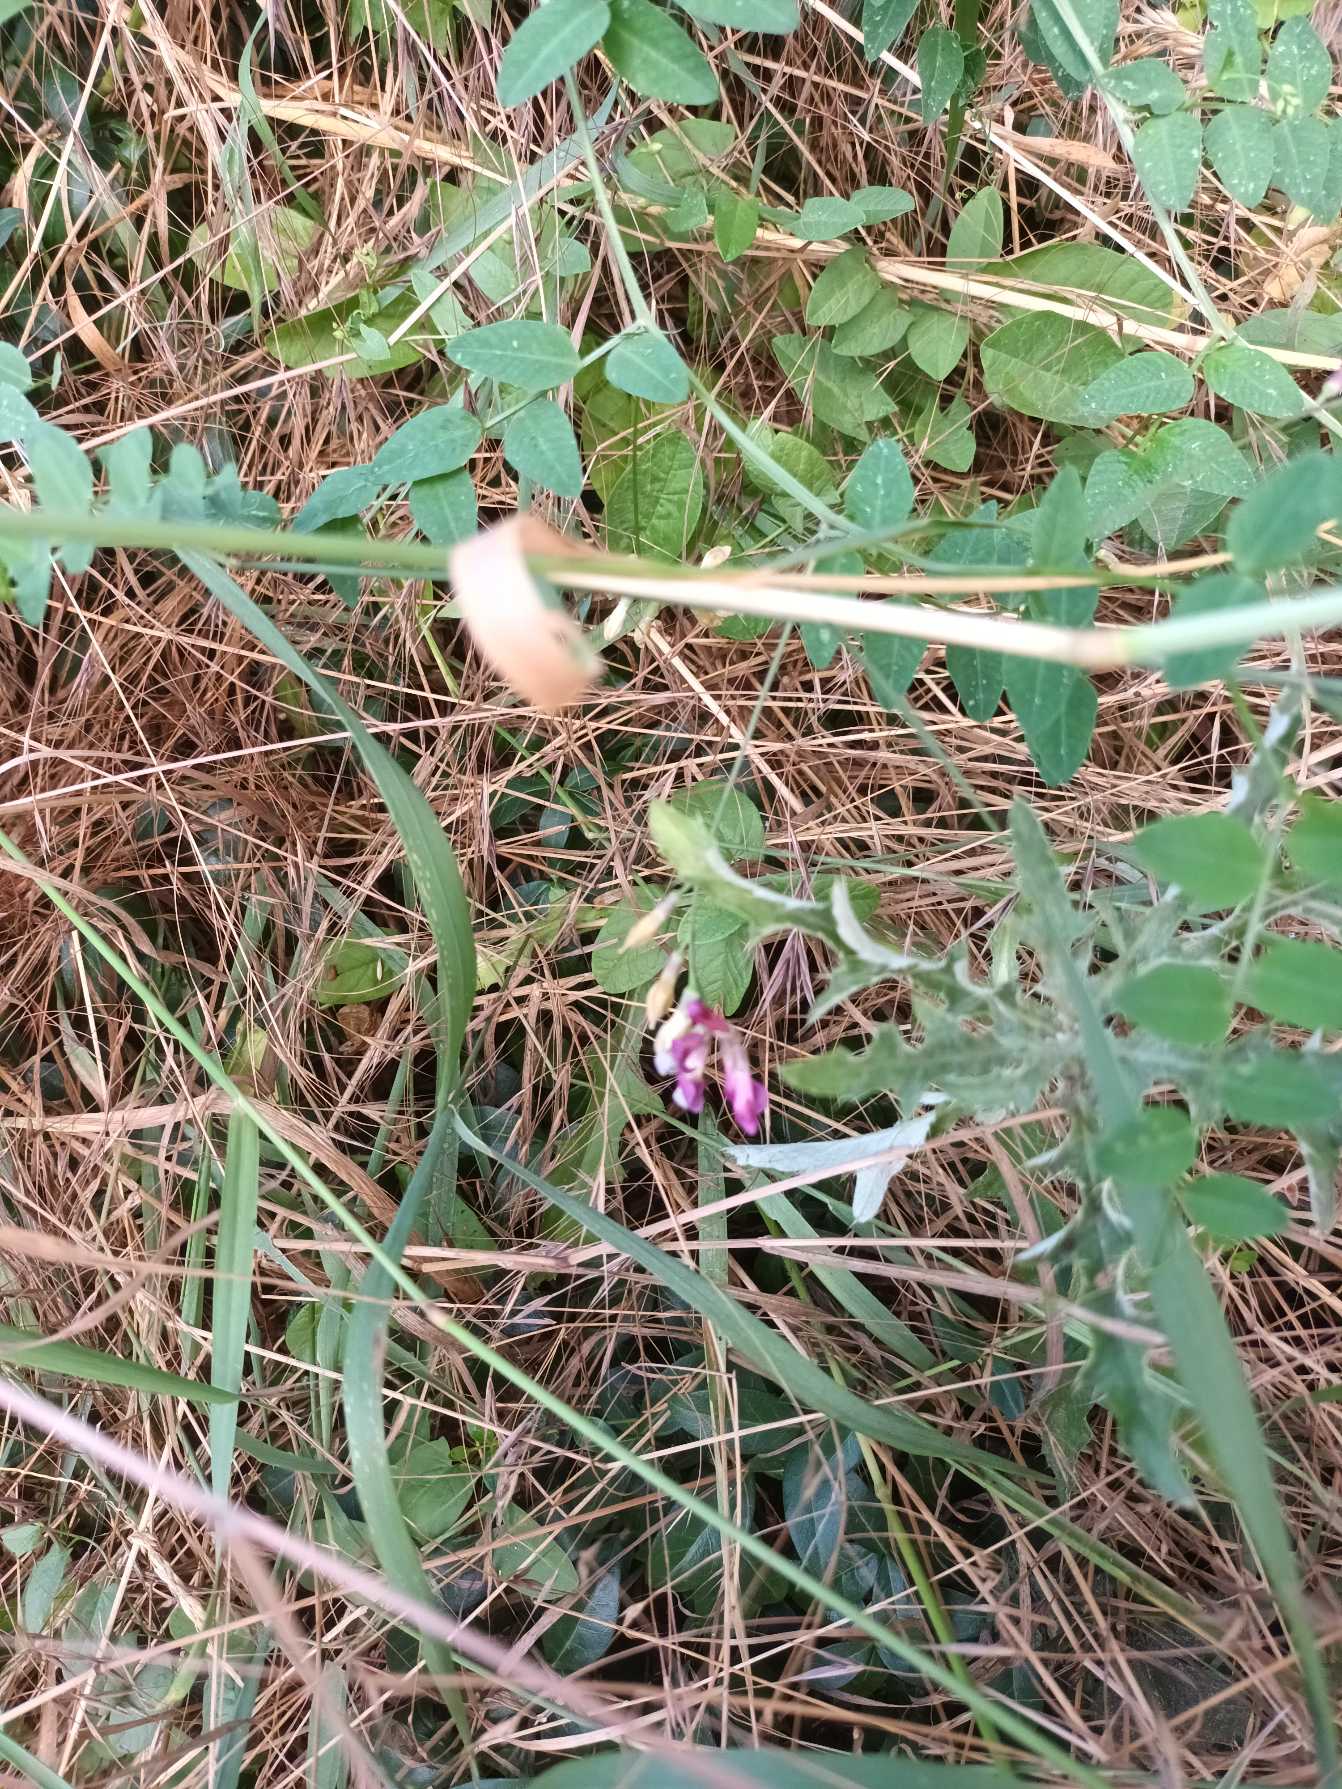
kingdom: Plantae
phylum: Tracheophyta
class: Magnoliopsida
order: Fabales
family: Fabaceae
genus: Vicia
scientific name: Vicia dumetorum
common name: Krat-vikke
